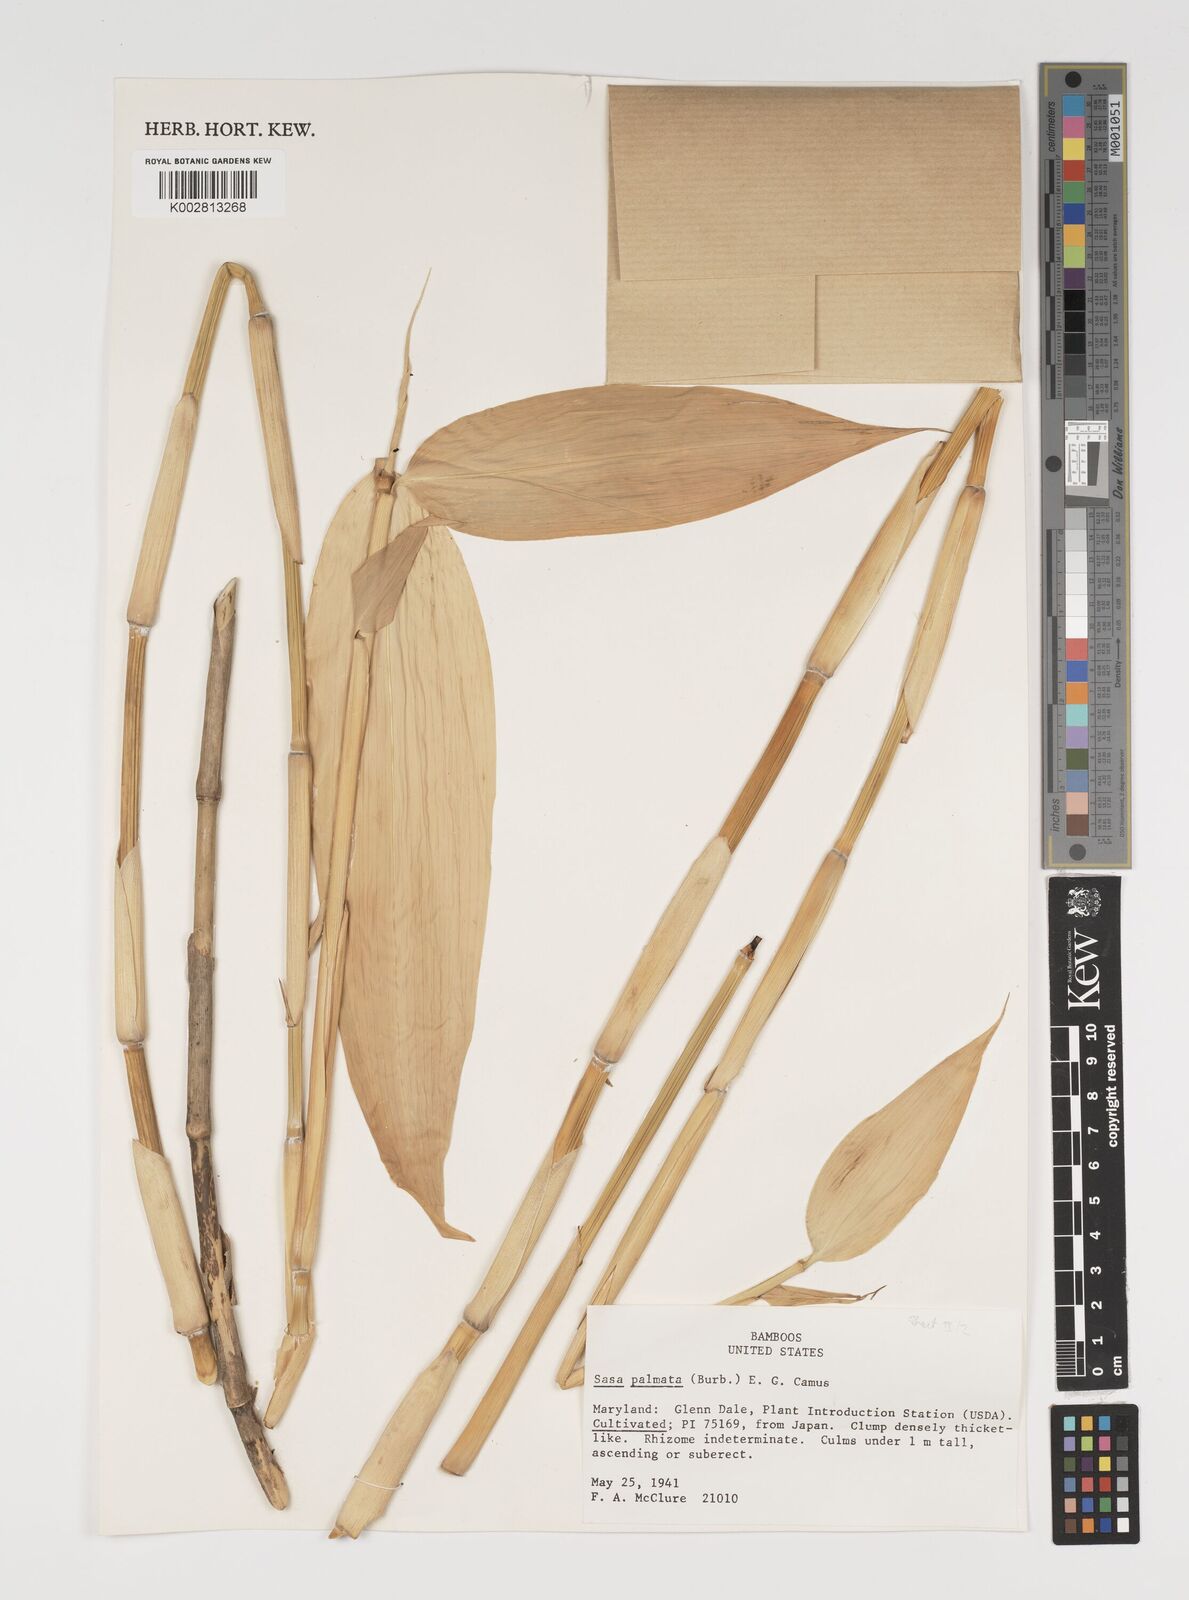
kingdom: Plantae
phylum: Tracheophyta
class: Liliopsida
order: Poales
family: Poaceae
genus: Sasa
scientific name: Sasa palmata
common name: Broad-leaved bamboo
